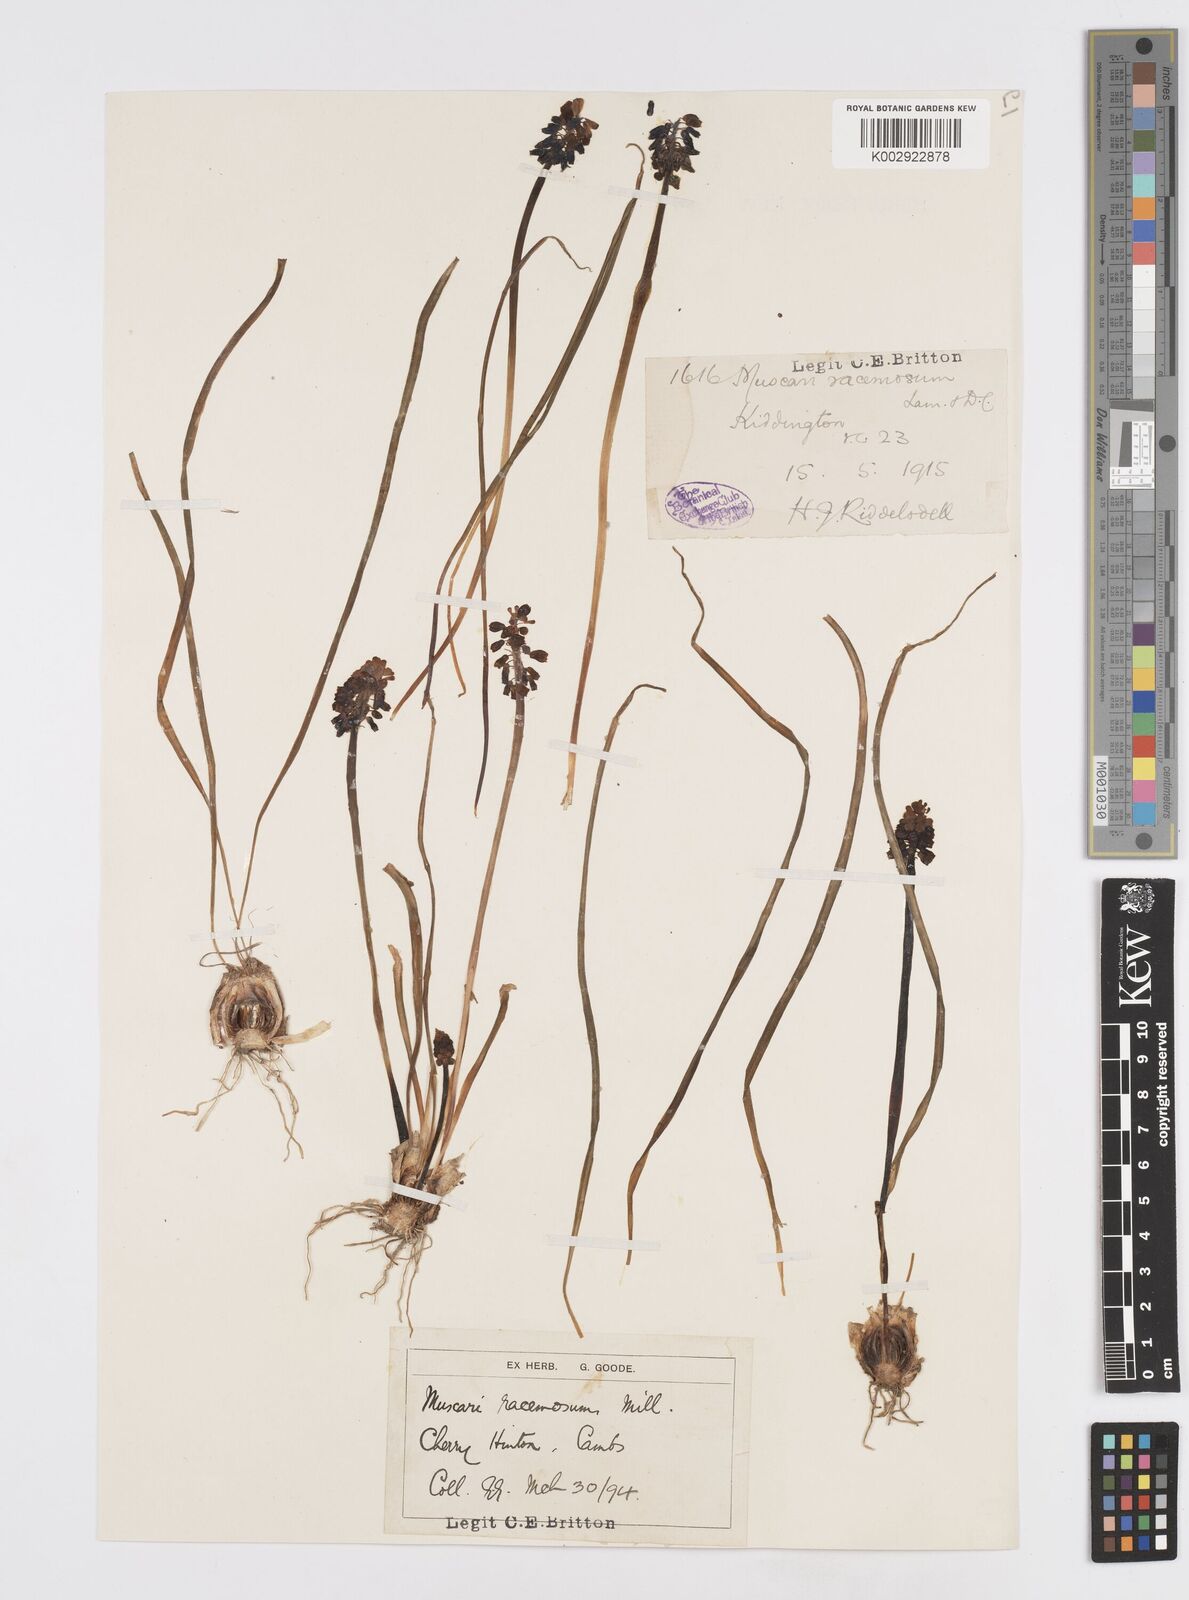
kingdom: Plantae
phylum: Tracheophyta
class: Liliopsida
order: Asparagales
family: Asparagaceae
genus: Muscari
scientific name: Muscari neglectum
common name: Grape-hyacinth
